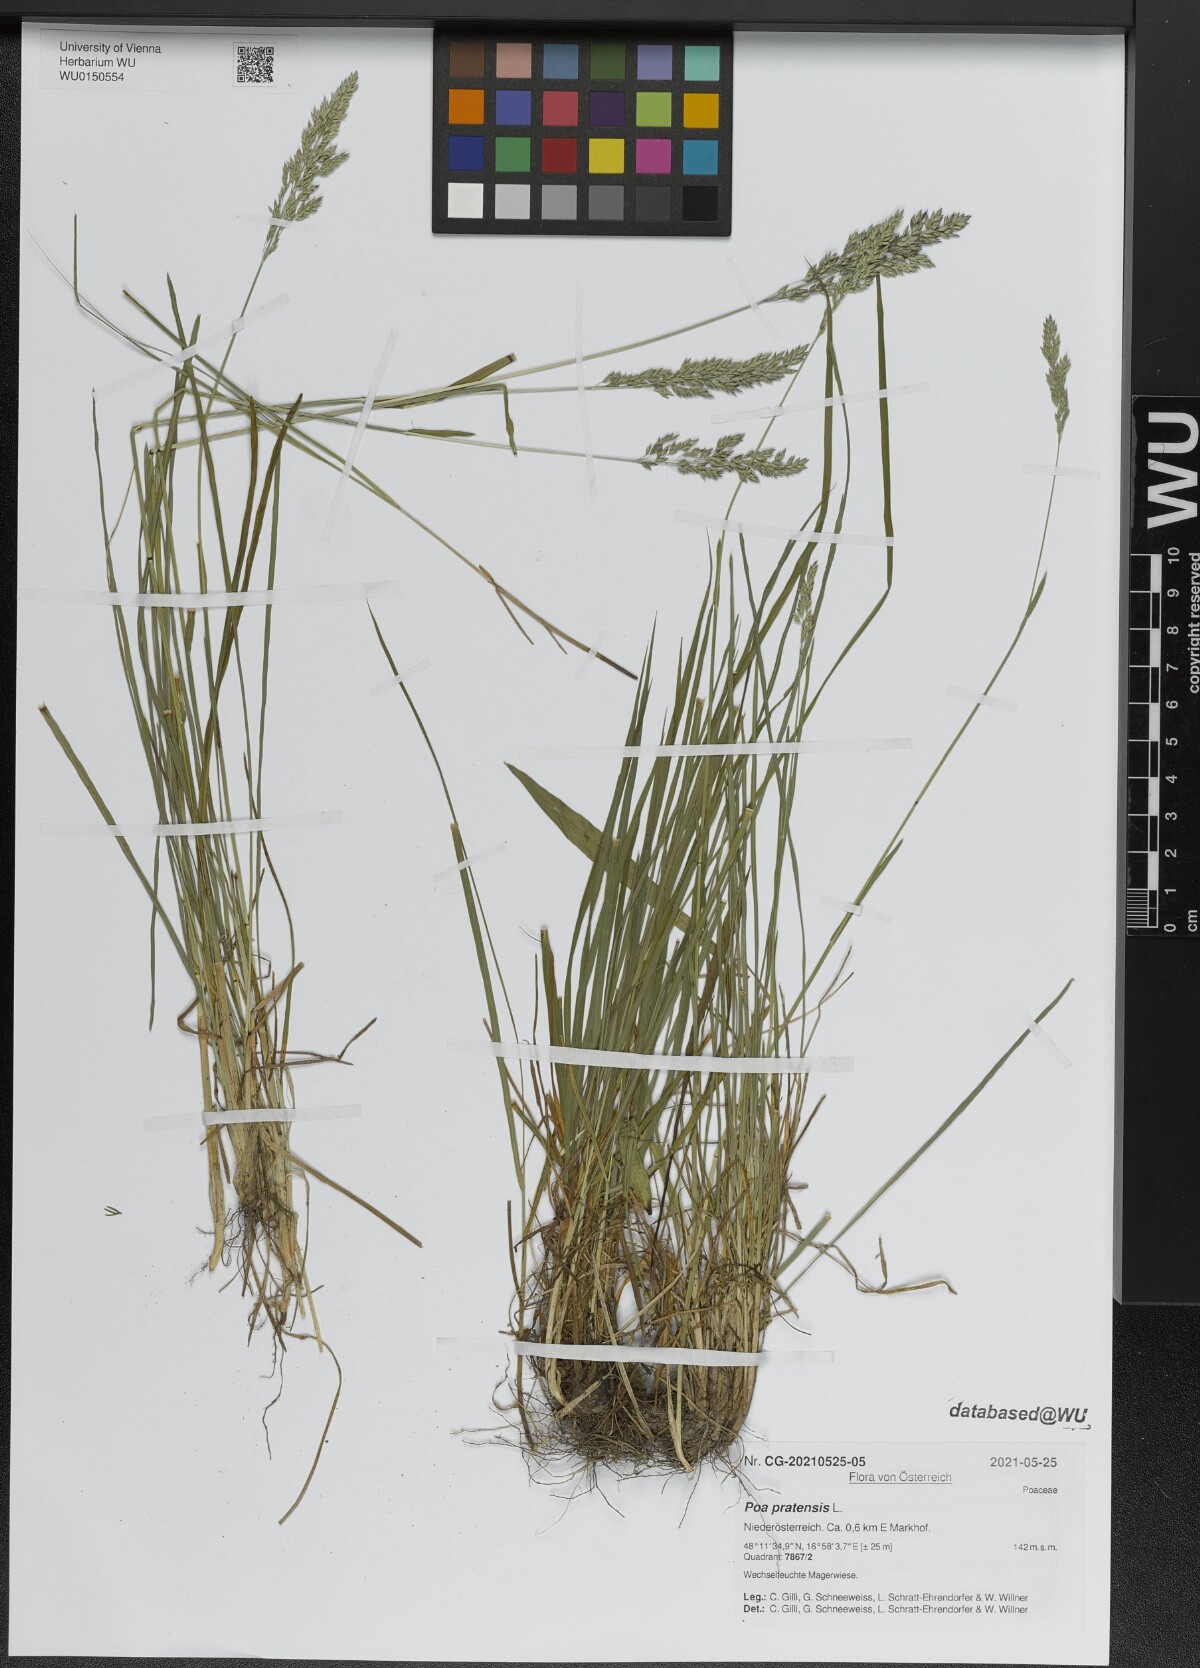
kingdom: Plantae
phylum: Tracheophyta
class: Liliopsida
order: Poales
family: Poaceae
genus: Poa
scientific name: Poa pratensis
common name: Kentucky bluegrass
